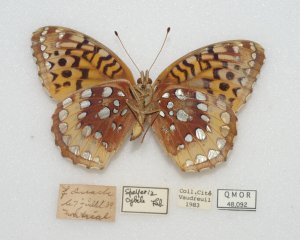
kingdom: Animalia
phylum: Arthropoda
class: Insecta
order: Lepidoptera
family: Nymphalidae
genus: Speyeria
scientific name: Speyeria cybele
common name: Great Spangled Fritillary
